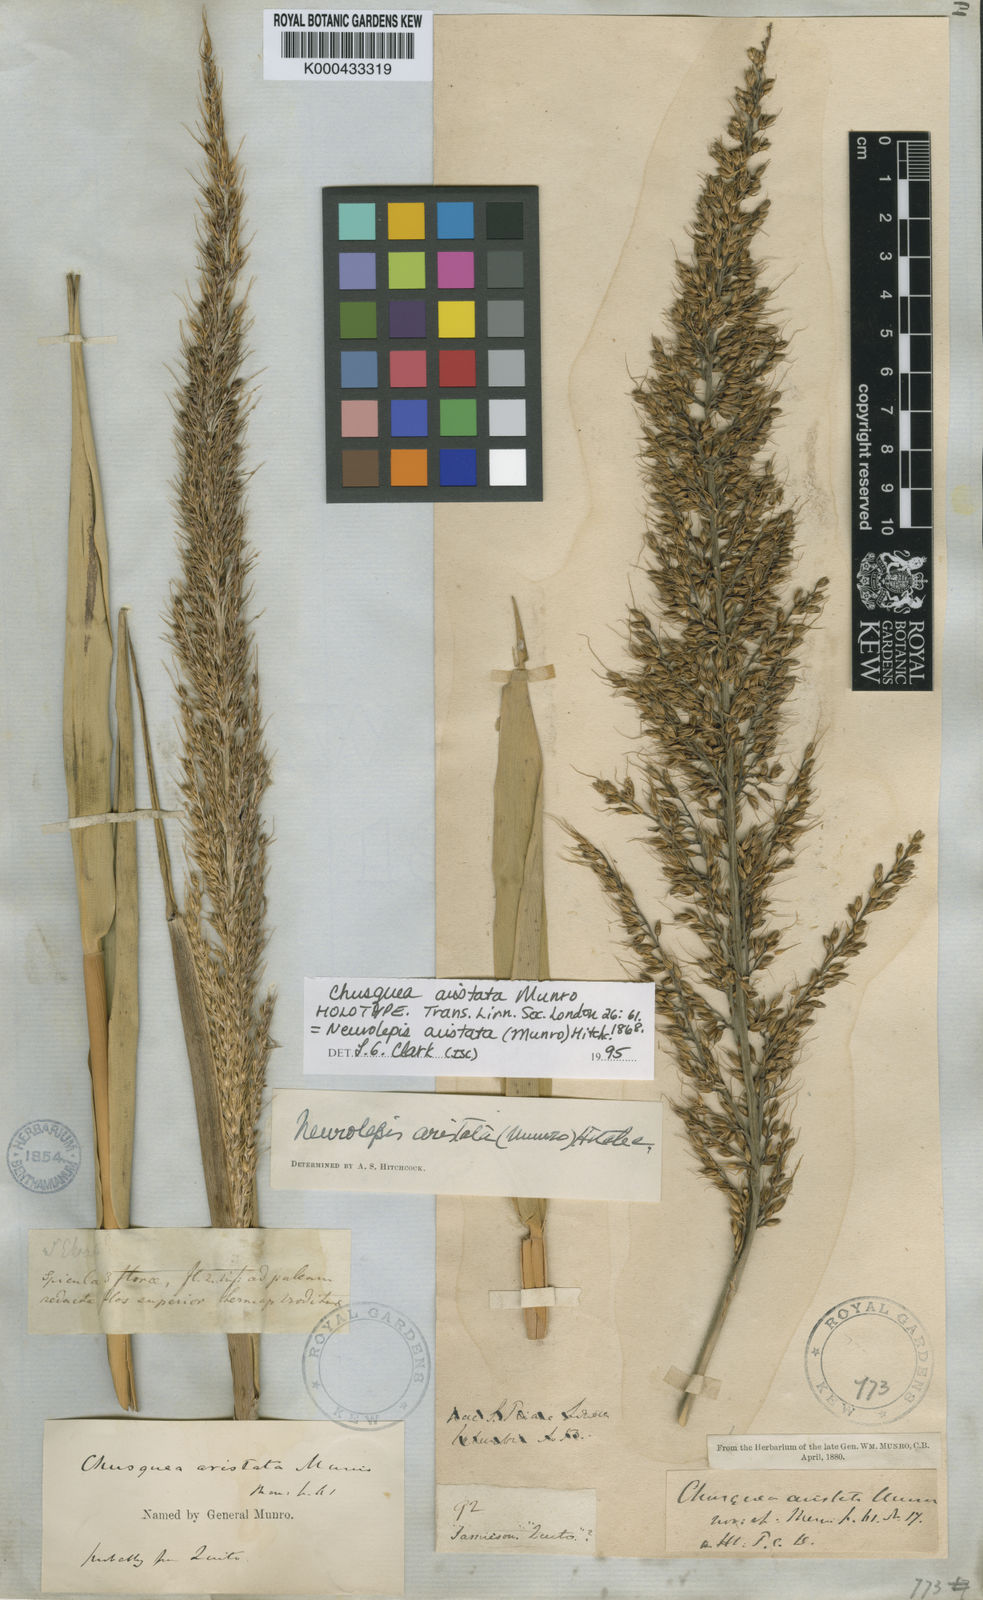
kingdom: Plantae
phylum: Tracheophyta
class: Liliopsida
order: Poales
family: Poaceae
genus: Chusquea
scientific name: Chusquea aristata
